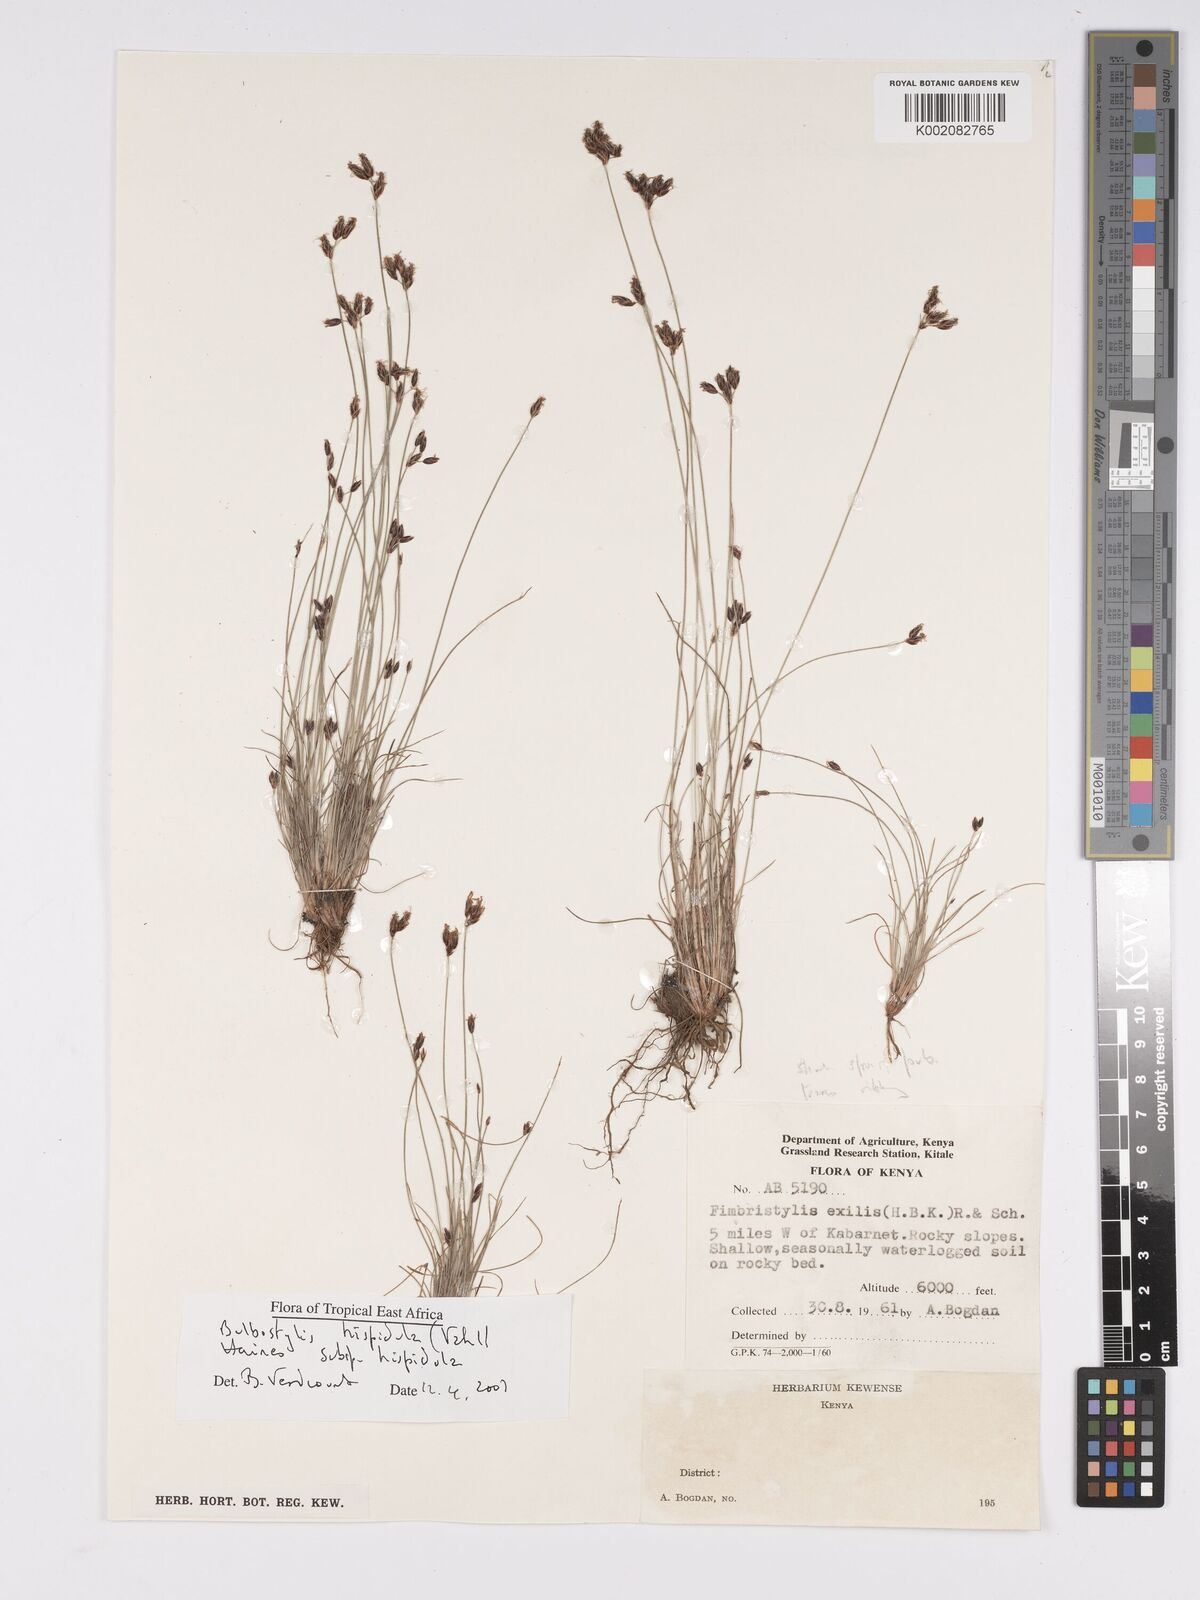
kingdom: Plantae
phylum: Tracheophyta
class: Liliopsida
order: Poales
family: Cyperaceae
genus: Bulbostylis
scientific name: Bulbostylis hispidula
